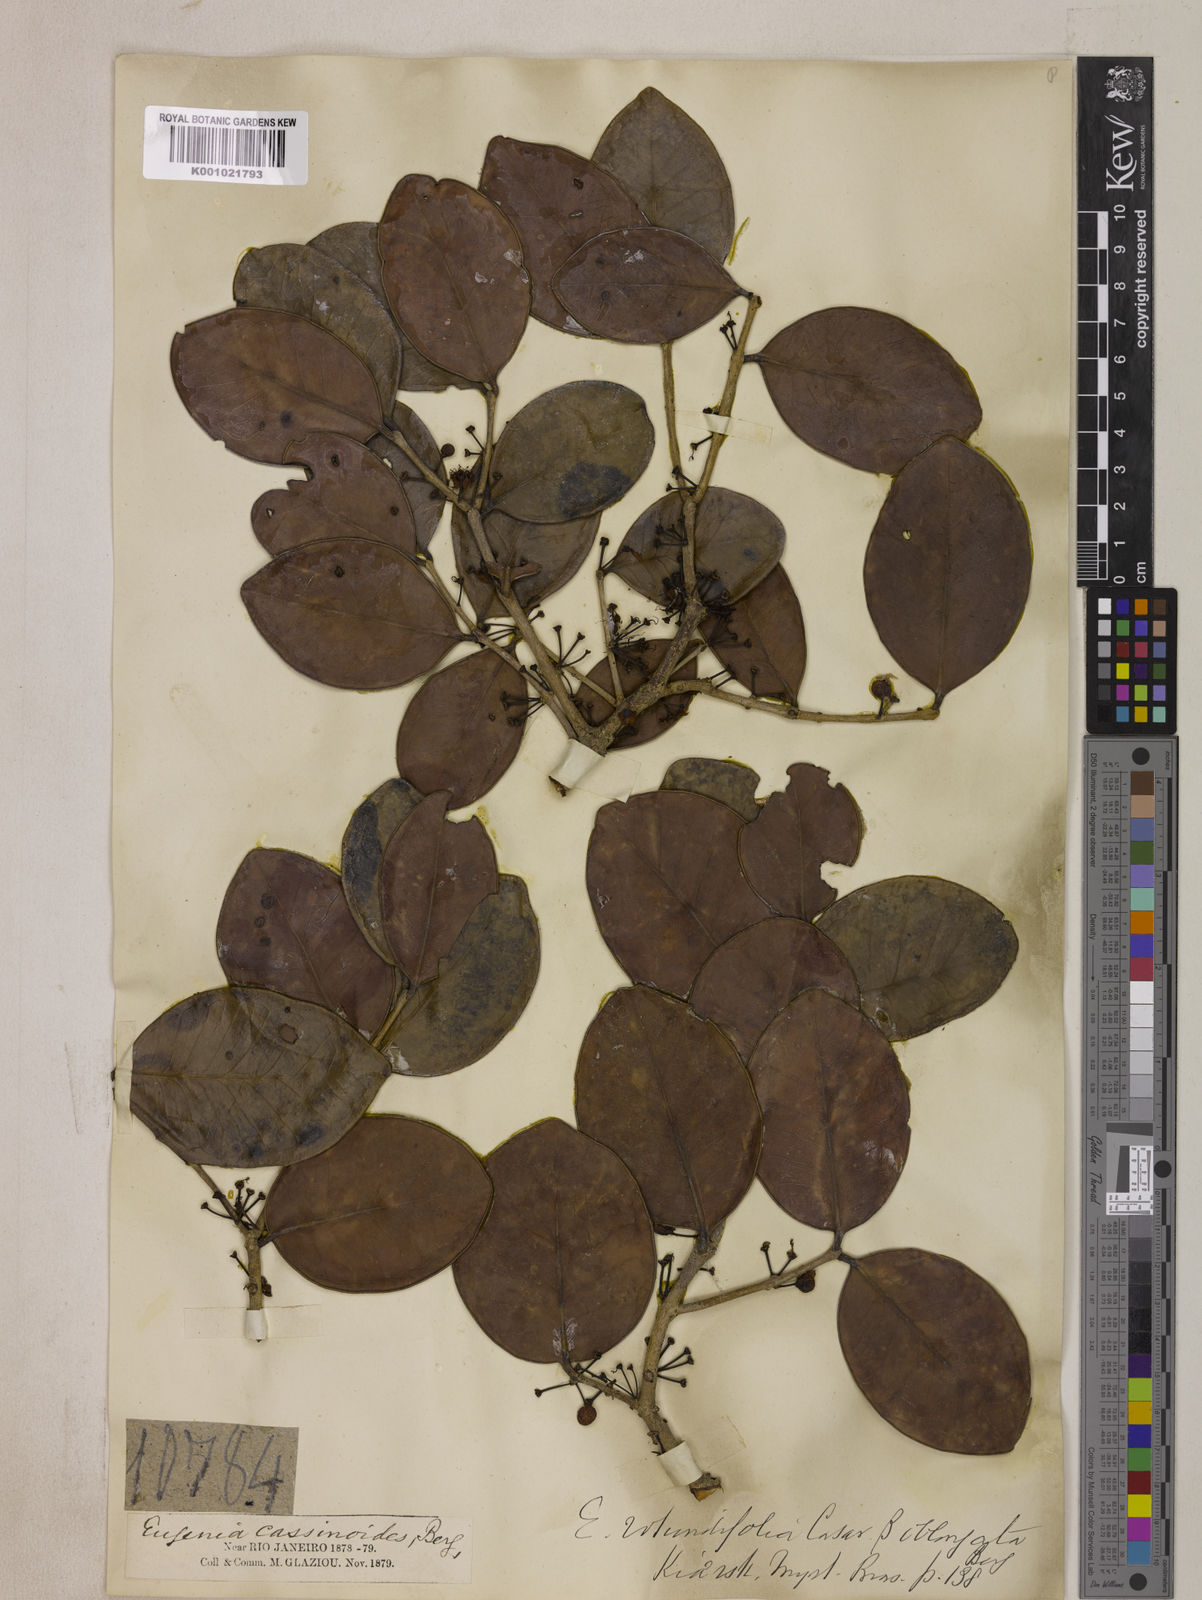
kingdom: Plantae
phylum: Tracheophyta
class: Magnoliopsida
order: Myrtales
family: Myrtaceae
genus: Eugenia
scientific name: Eugenia casarettoana
